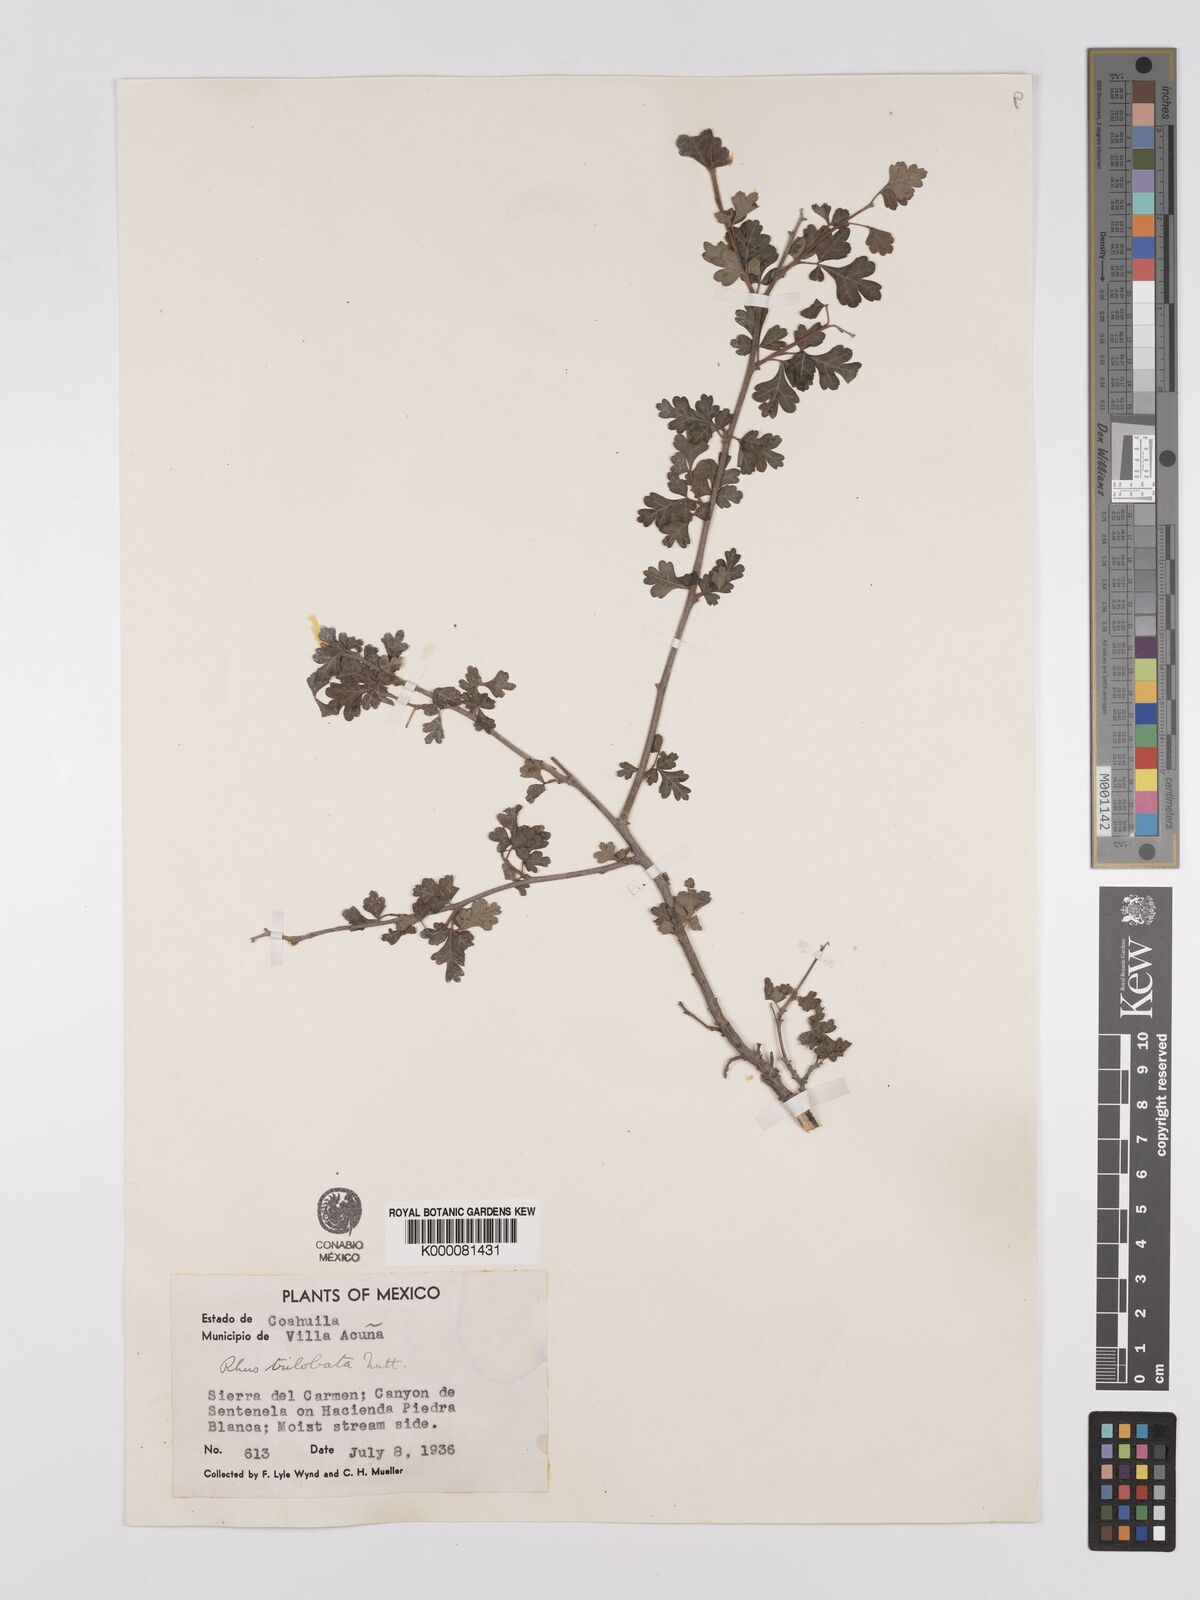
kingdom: Plantae
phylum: Tracheophyta
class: Magnoliopsida
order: Sapindales
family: Anacardiaceae
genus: Rhus
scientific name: Rhus trilobata
